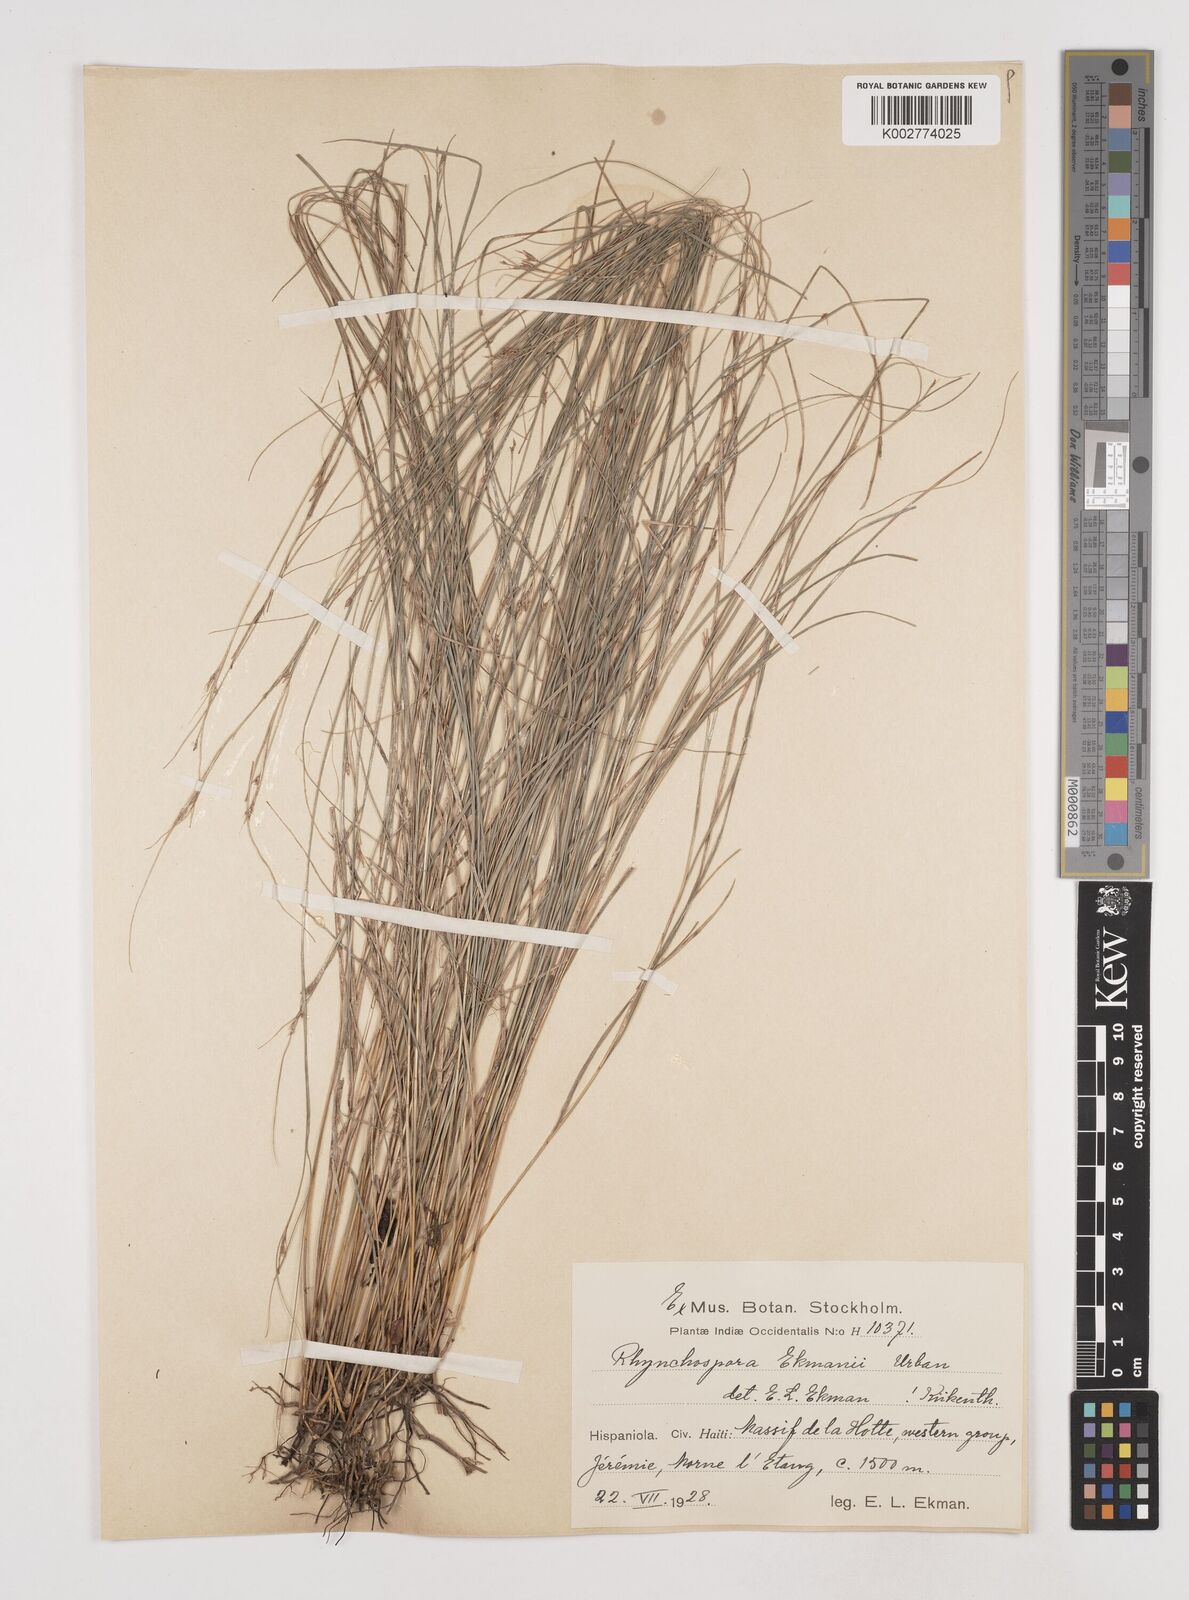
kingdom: Plantae
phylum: Tracheophyta
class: Liliopsida
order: Poales
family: Cyperaceae
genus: Rhynchospora
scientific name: Rhynchospora biflora
